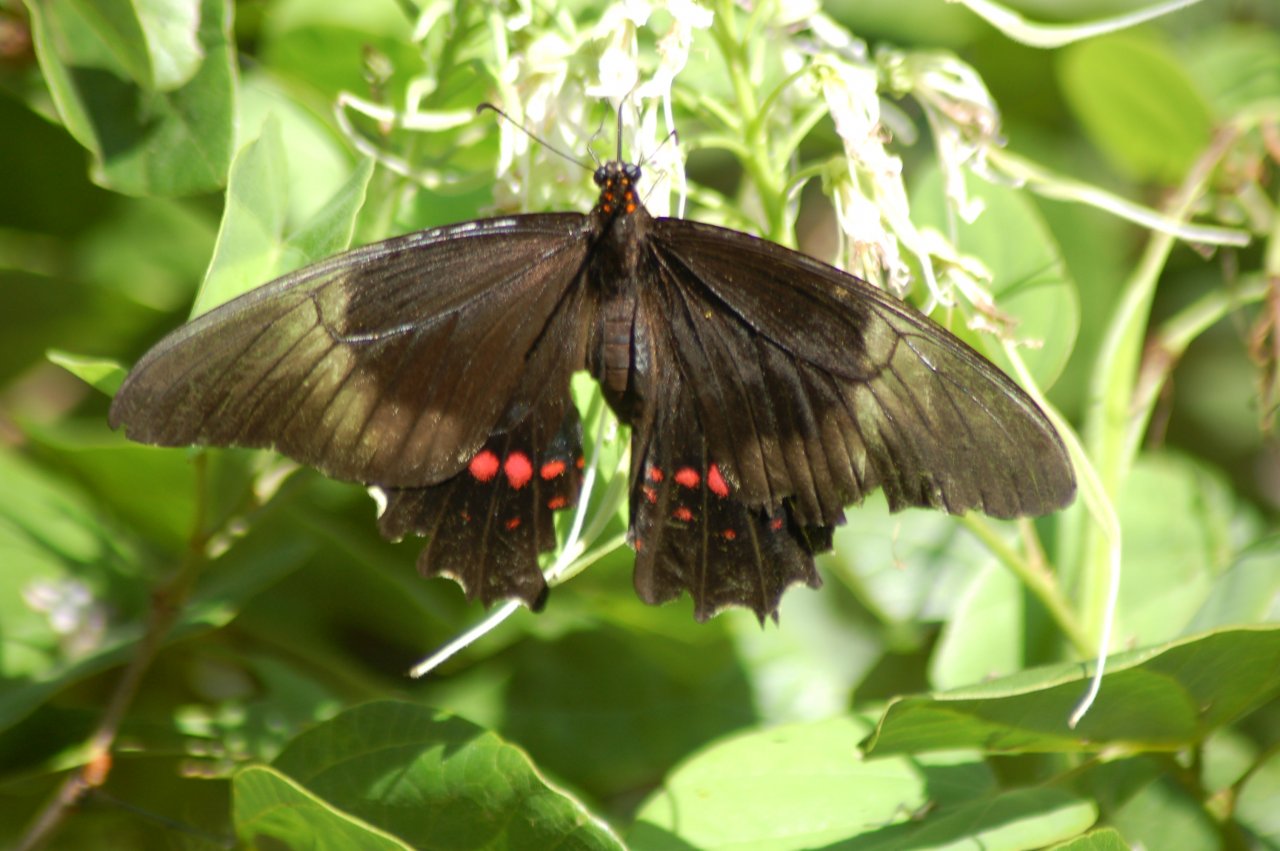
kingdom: Animalia
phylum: Arthropoda
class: Insecta
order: Lepidoptera
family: Sesiidae
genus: Sesia
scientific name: Sesia Biblis hyperia
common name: Red Rim
